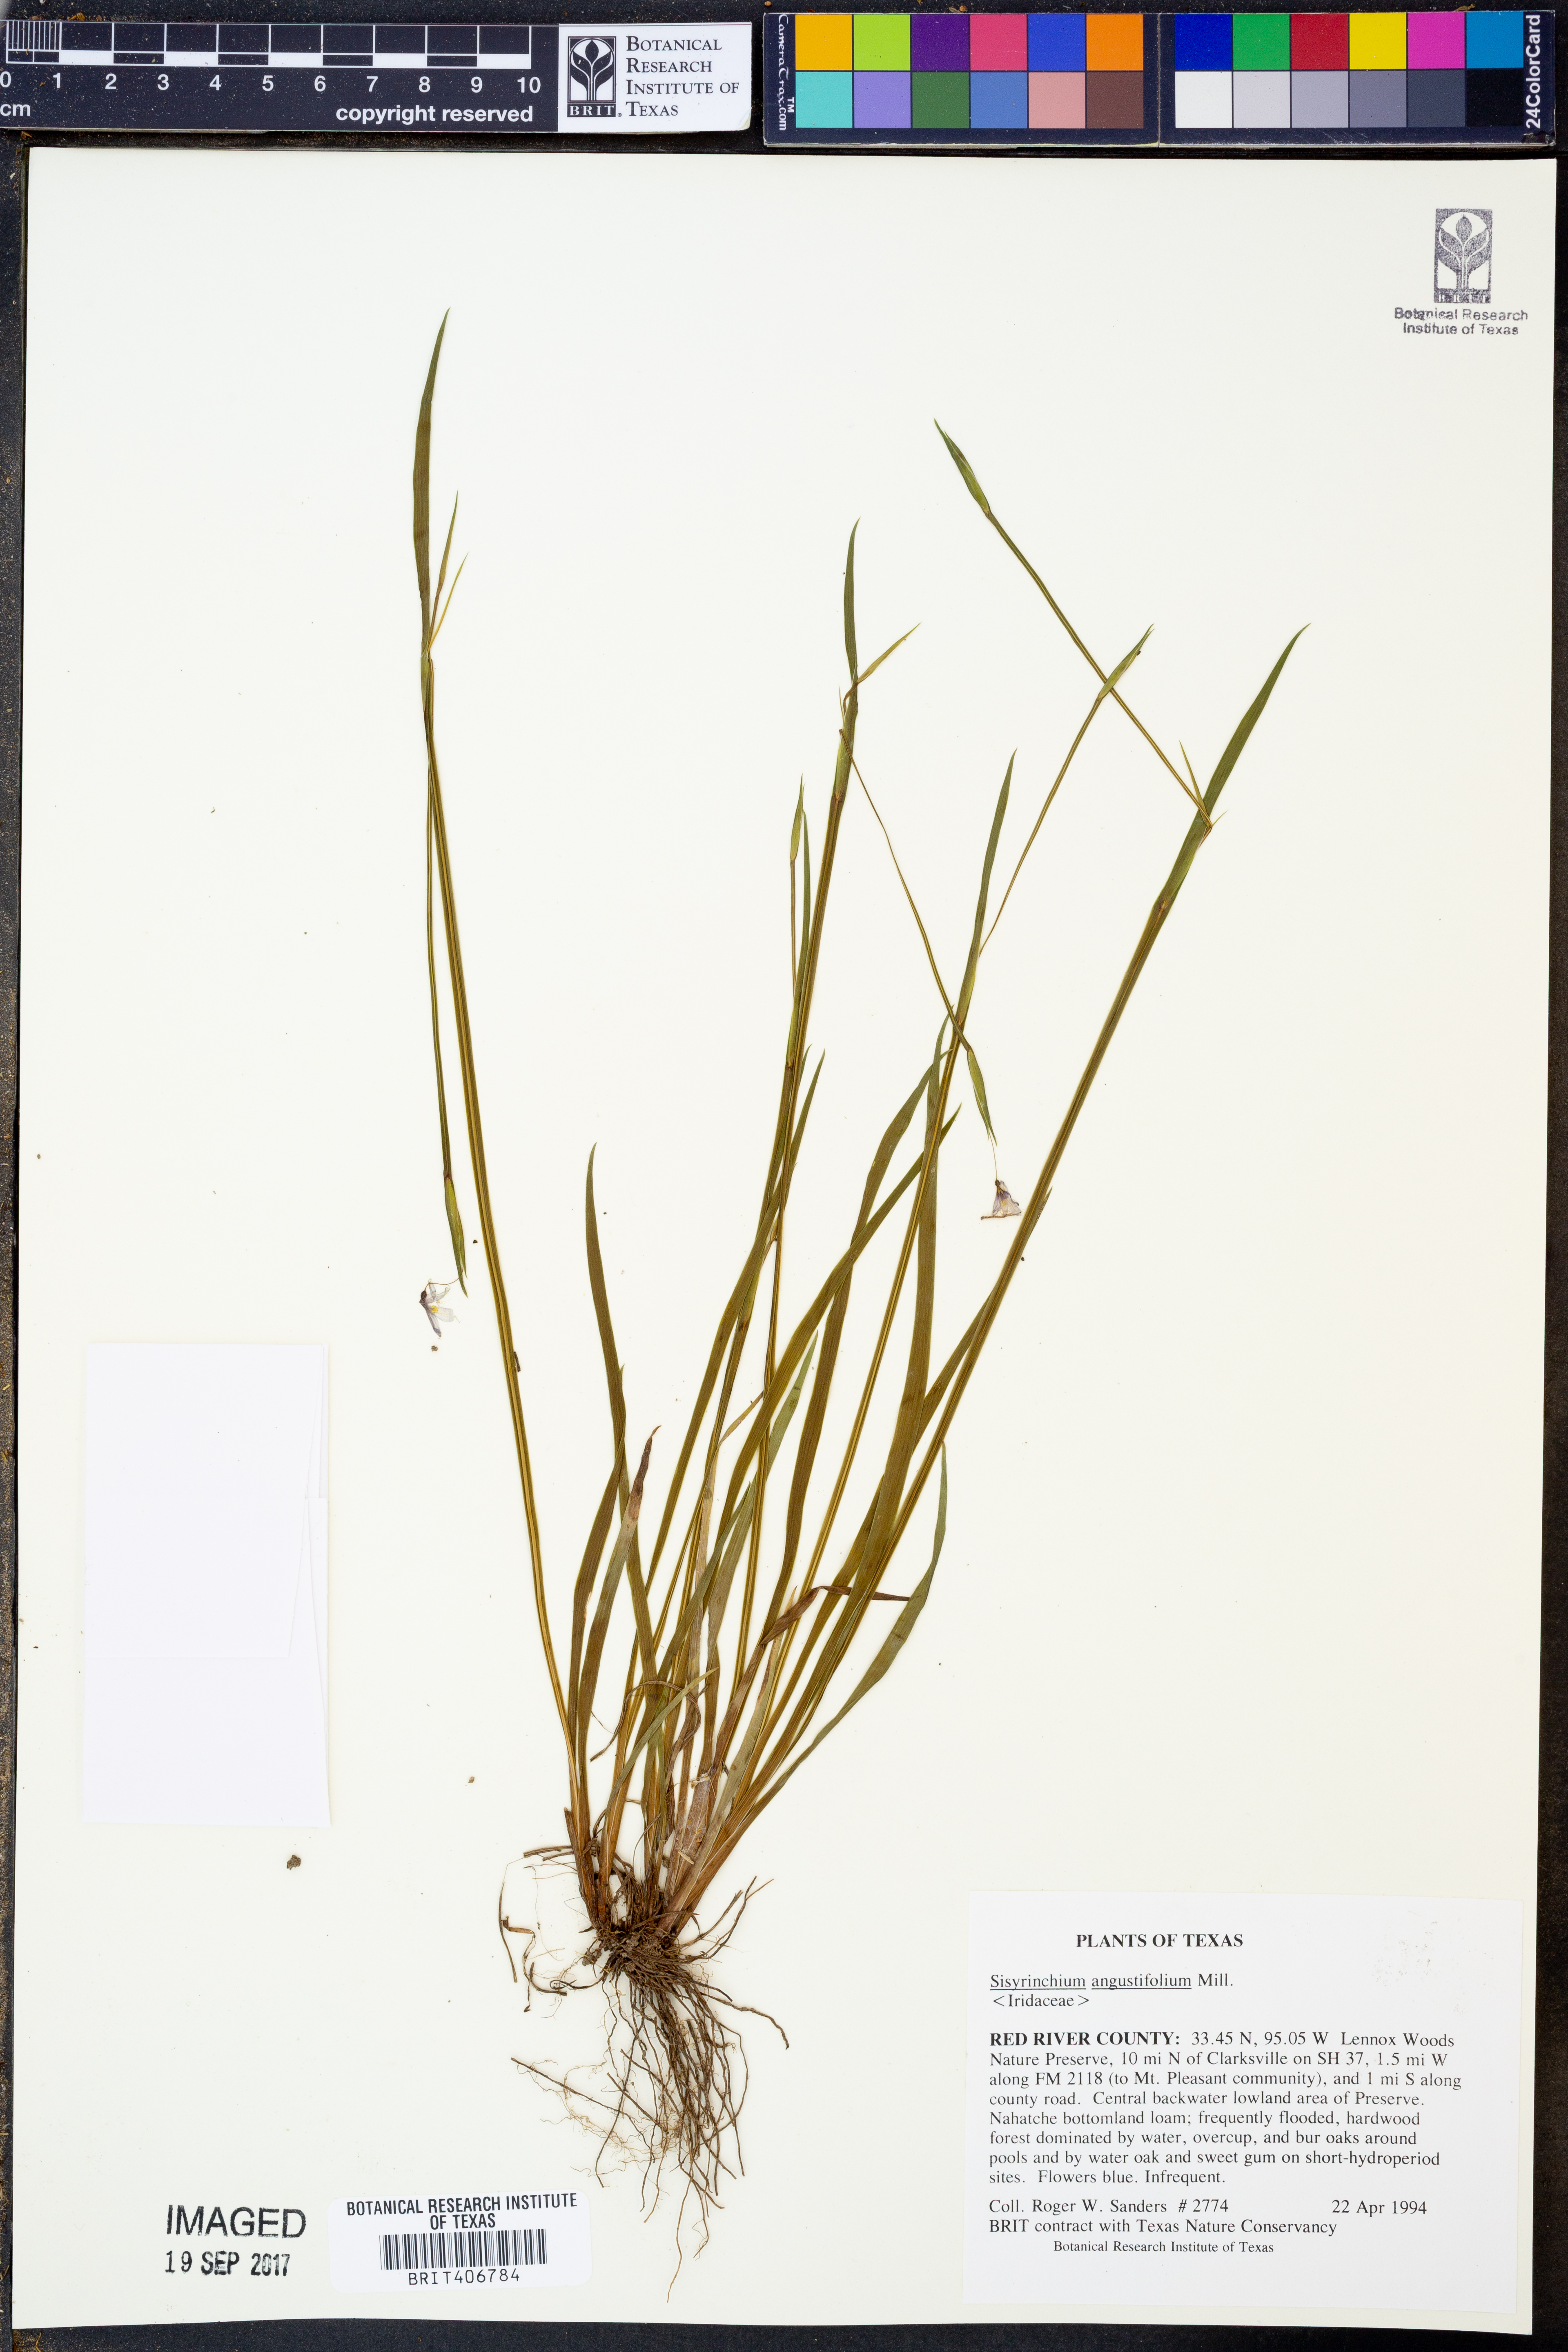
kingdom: Plantae
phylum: Tracheophyta
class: Liliopsida
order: Asparagales
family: Iridaceae
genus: Sisyrinchium
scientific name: Sisyrinchium angustifolium
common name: Narrow-leaf blue-eyed-grass
